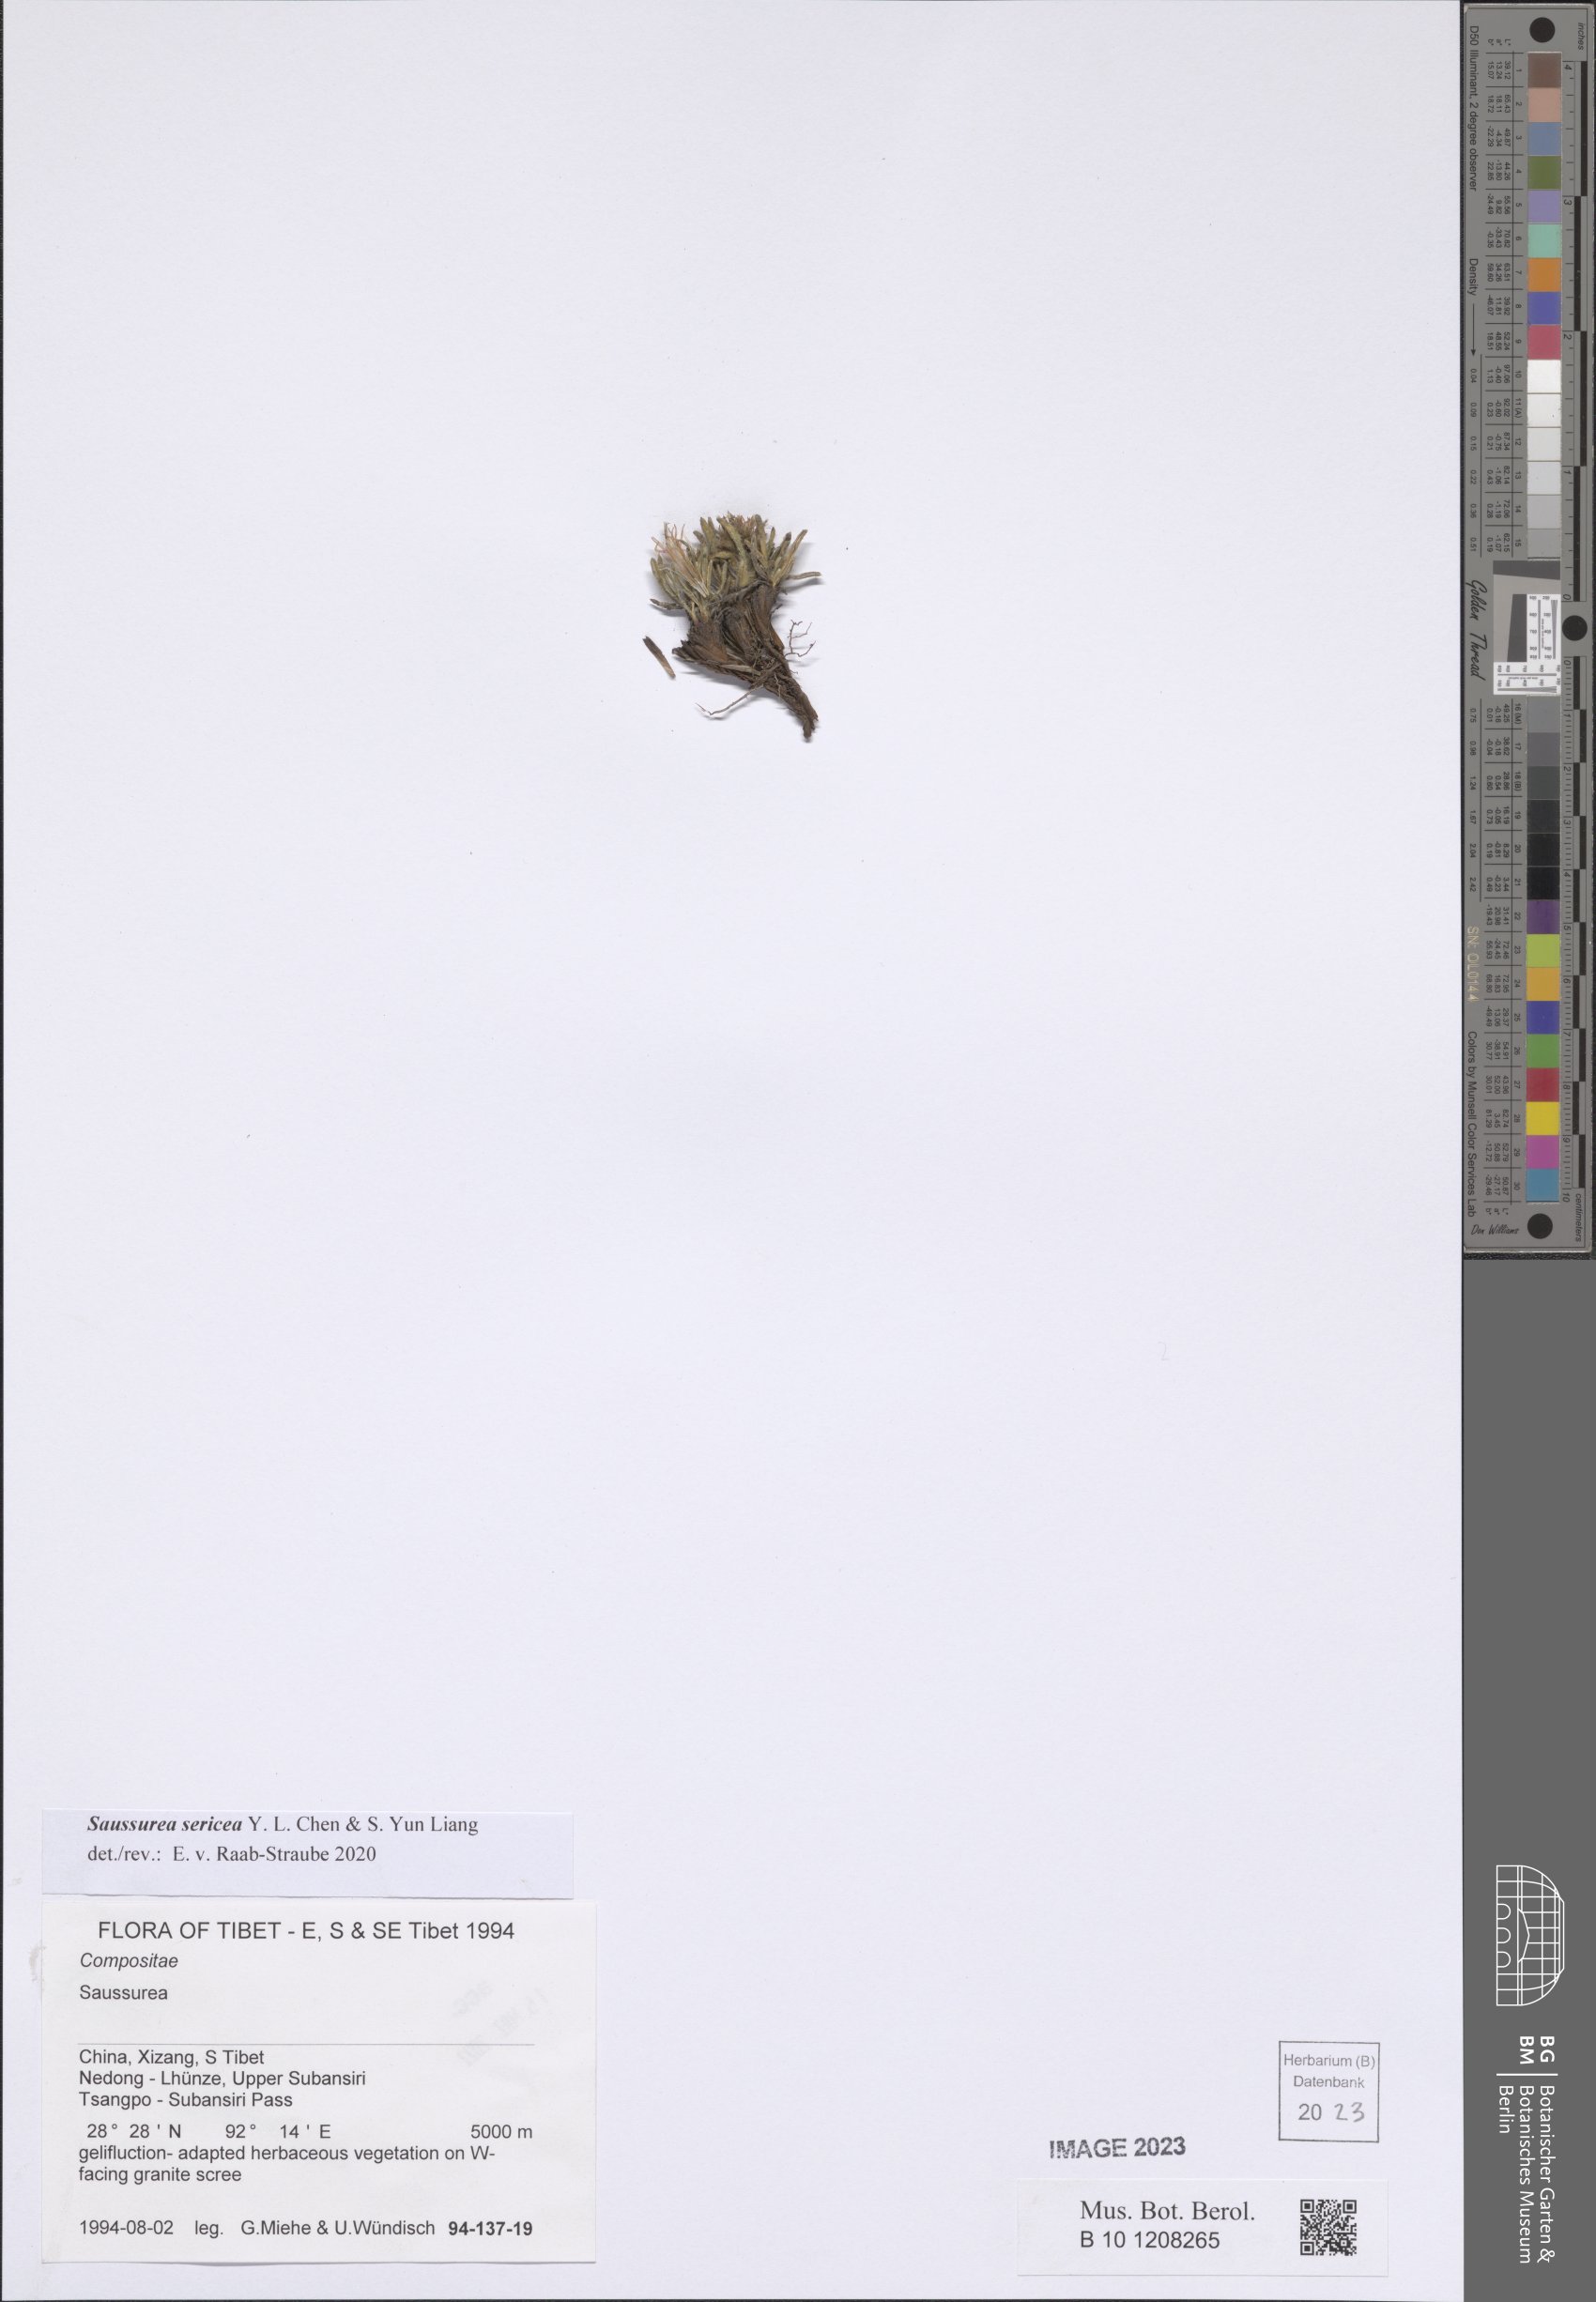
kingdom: Plantae
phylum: Tracheophyta
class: Magnoliopsida
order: Asterales
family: Asteraceae
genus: Saussurea
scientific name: Saussurea sericea
